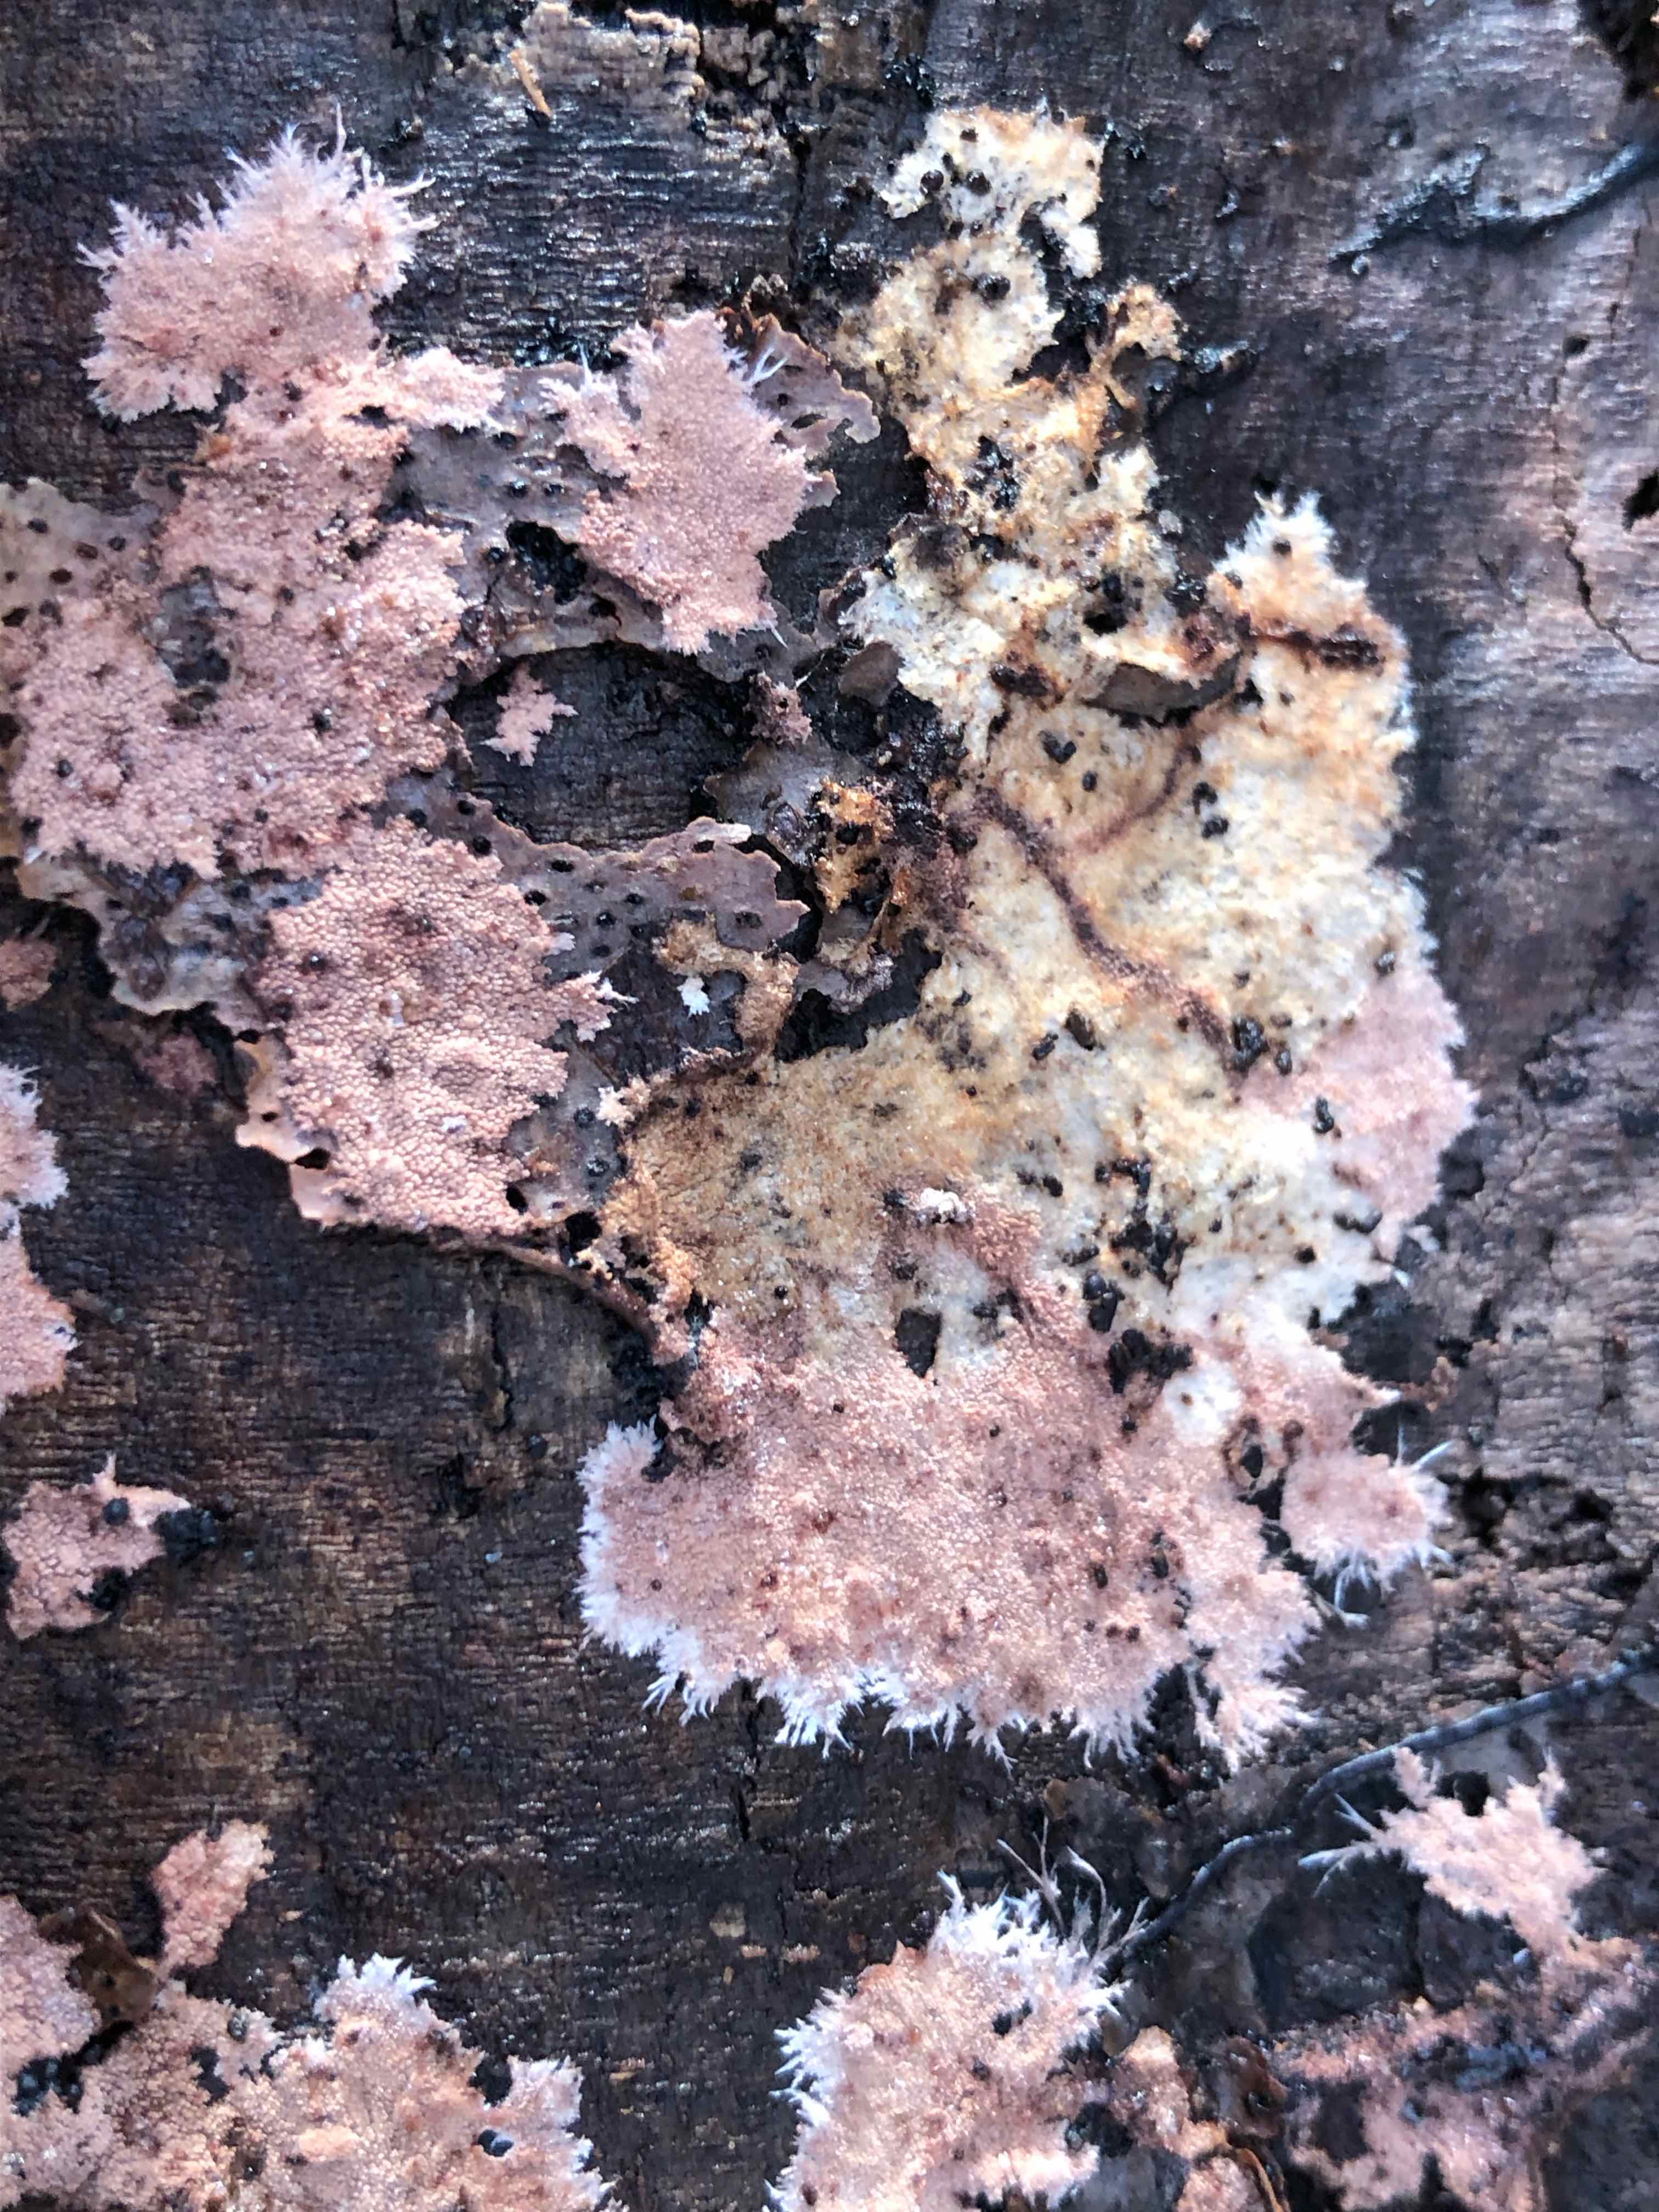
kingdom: Fungi
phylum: Basidiomycota
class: Agaricomycetes
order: Polyporales
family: Steccherinaceae
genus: Steccherinum
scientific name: Steccherinum fimbriatum
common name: trådet skønpig
